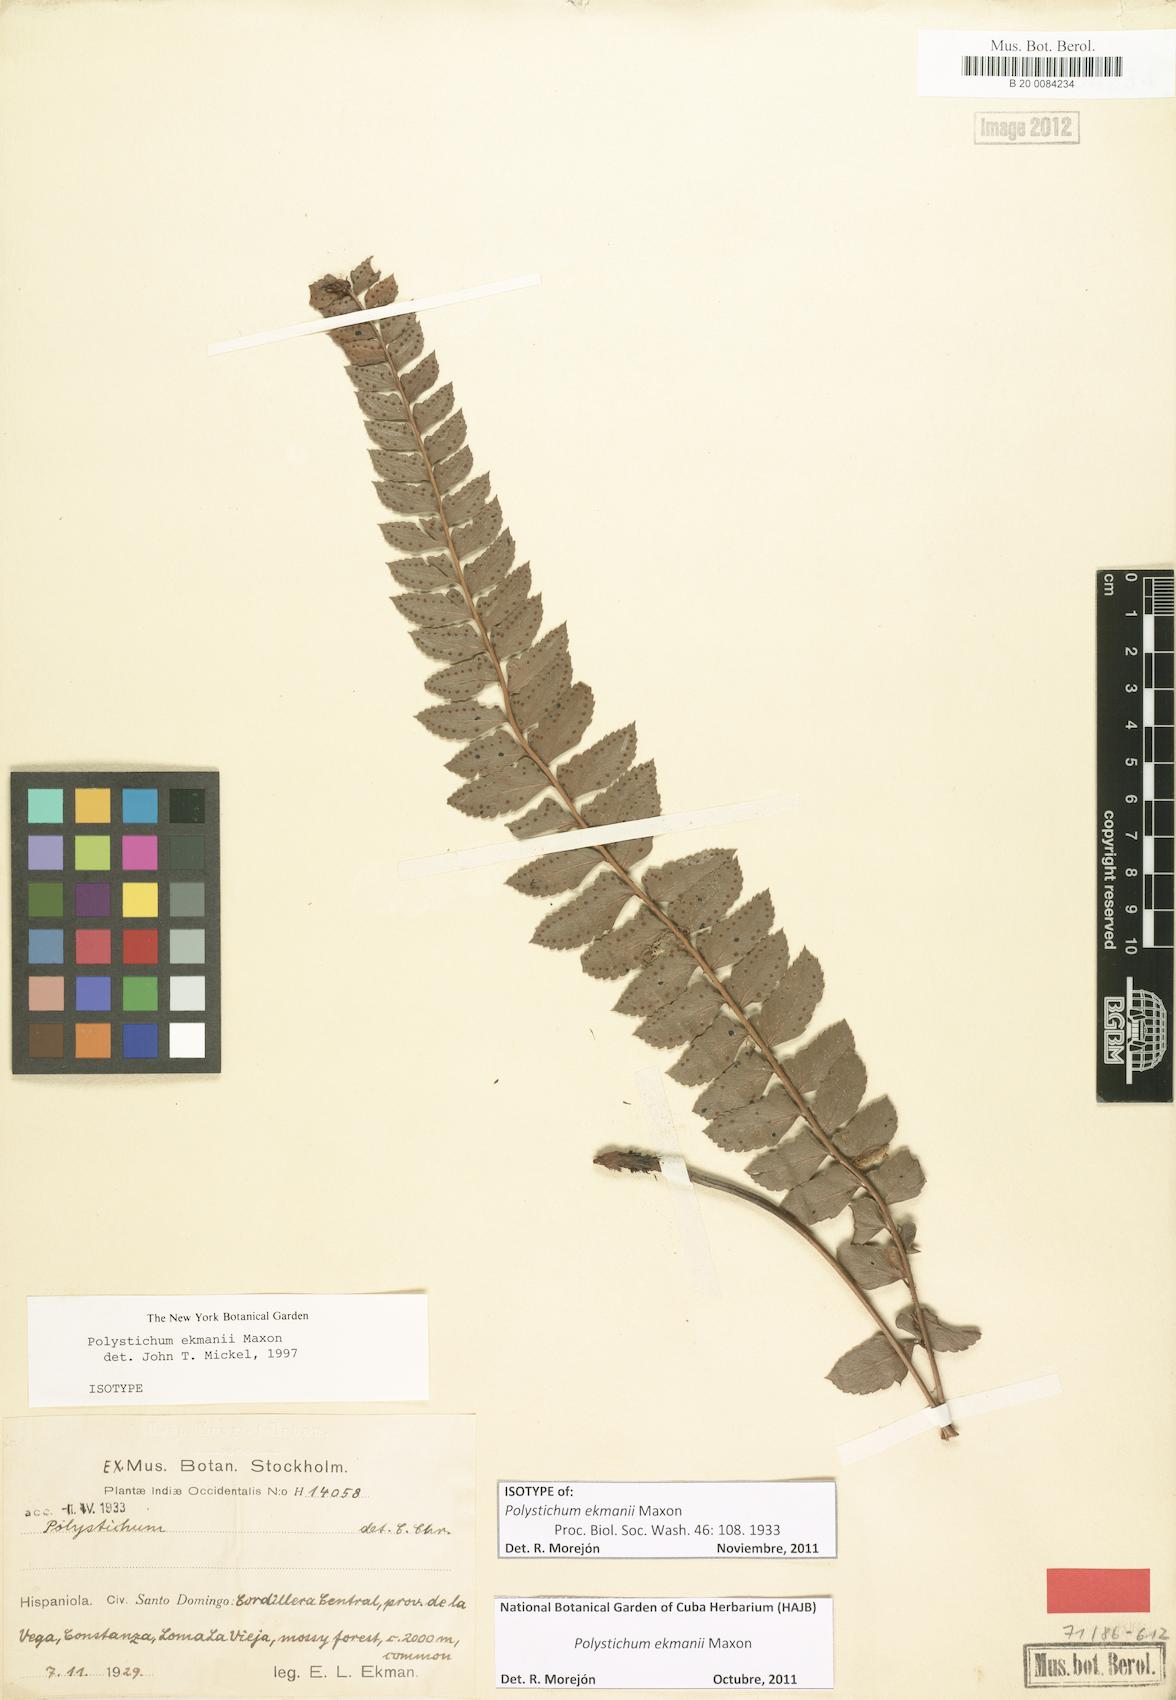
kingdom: Plantae
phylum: Tracheophyta
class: Polypodiopsida
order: Polypodiales
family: Dryopteridaceae
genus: Polystichum
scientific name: Polystichum ekmanii
